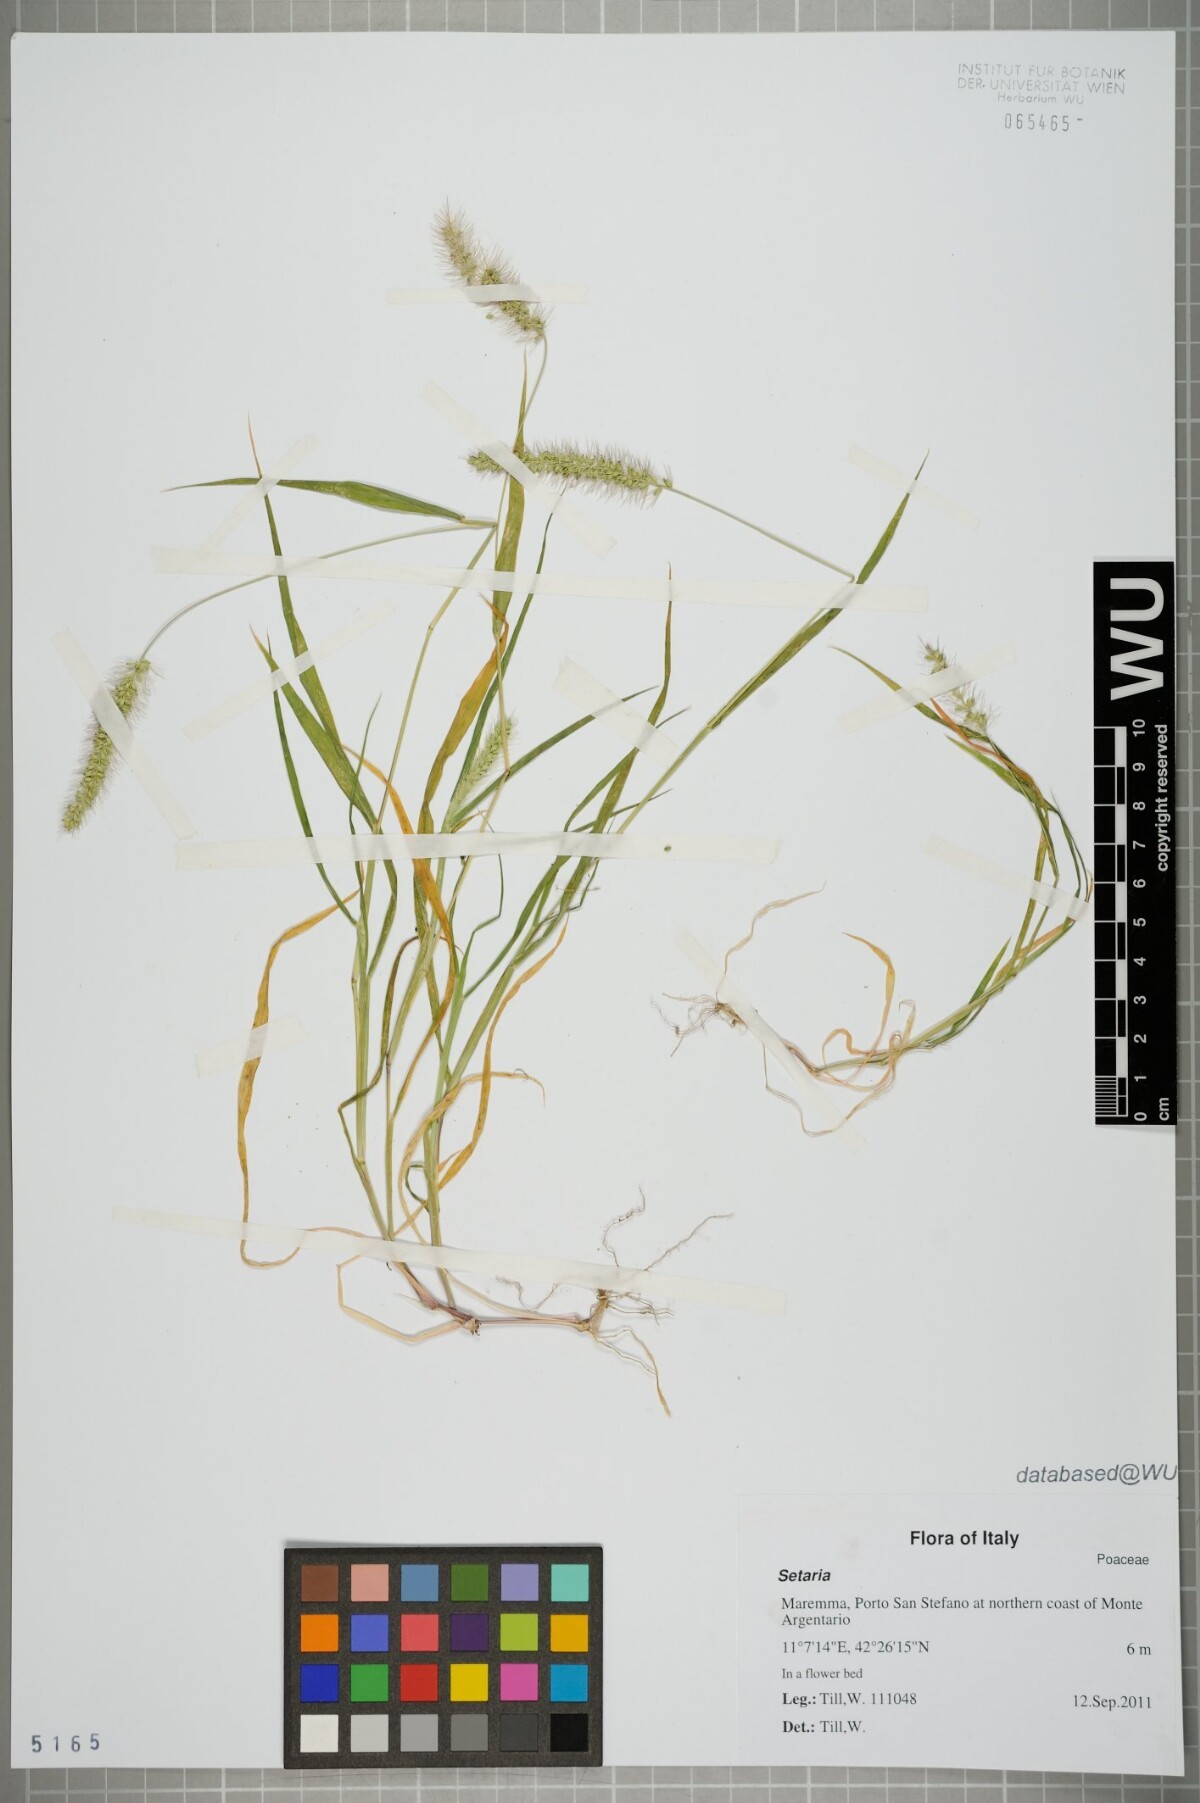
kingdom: Plantae
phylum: Tracheophyta
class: Liliopsida
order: Poales
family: Poaceae
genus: Setaria
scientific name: Setaria
